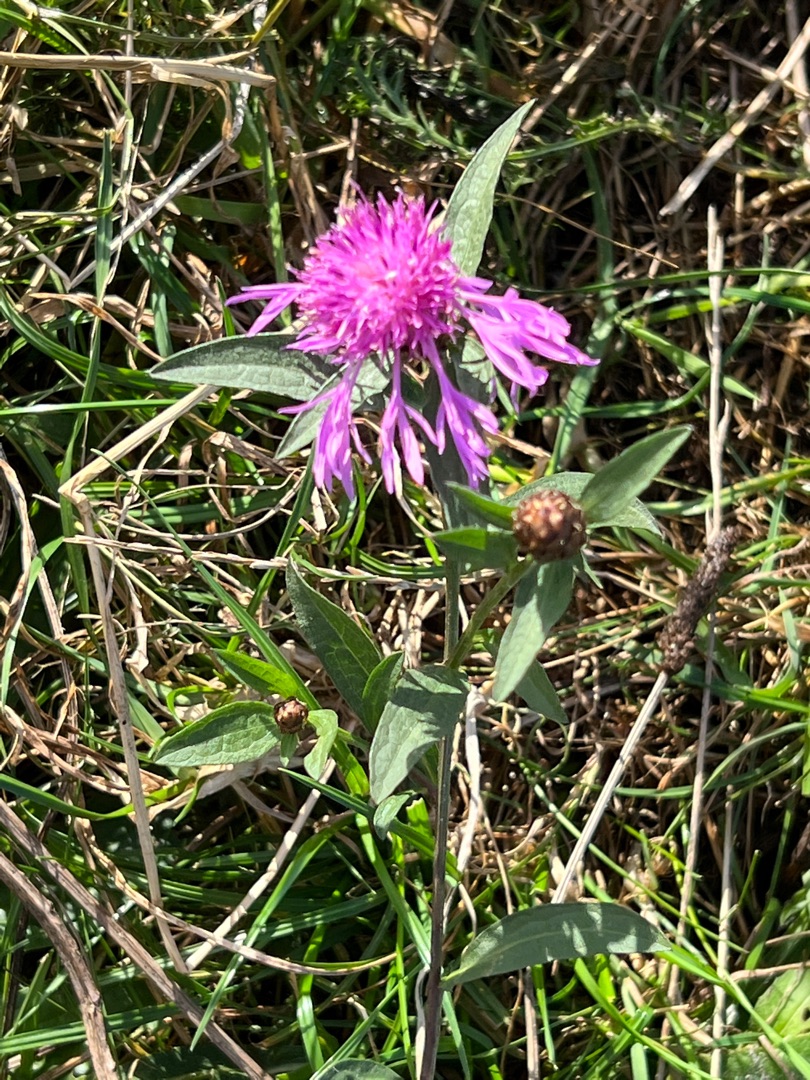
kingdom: Plantae
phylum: Tracheophyta
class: Magnoliopsida
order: Asterales
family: Asteraceae
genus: Centaurea
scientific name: Centaurea jacea
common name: Almindelig knopurt
